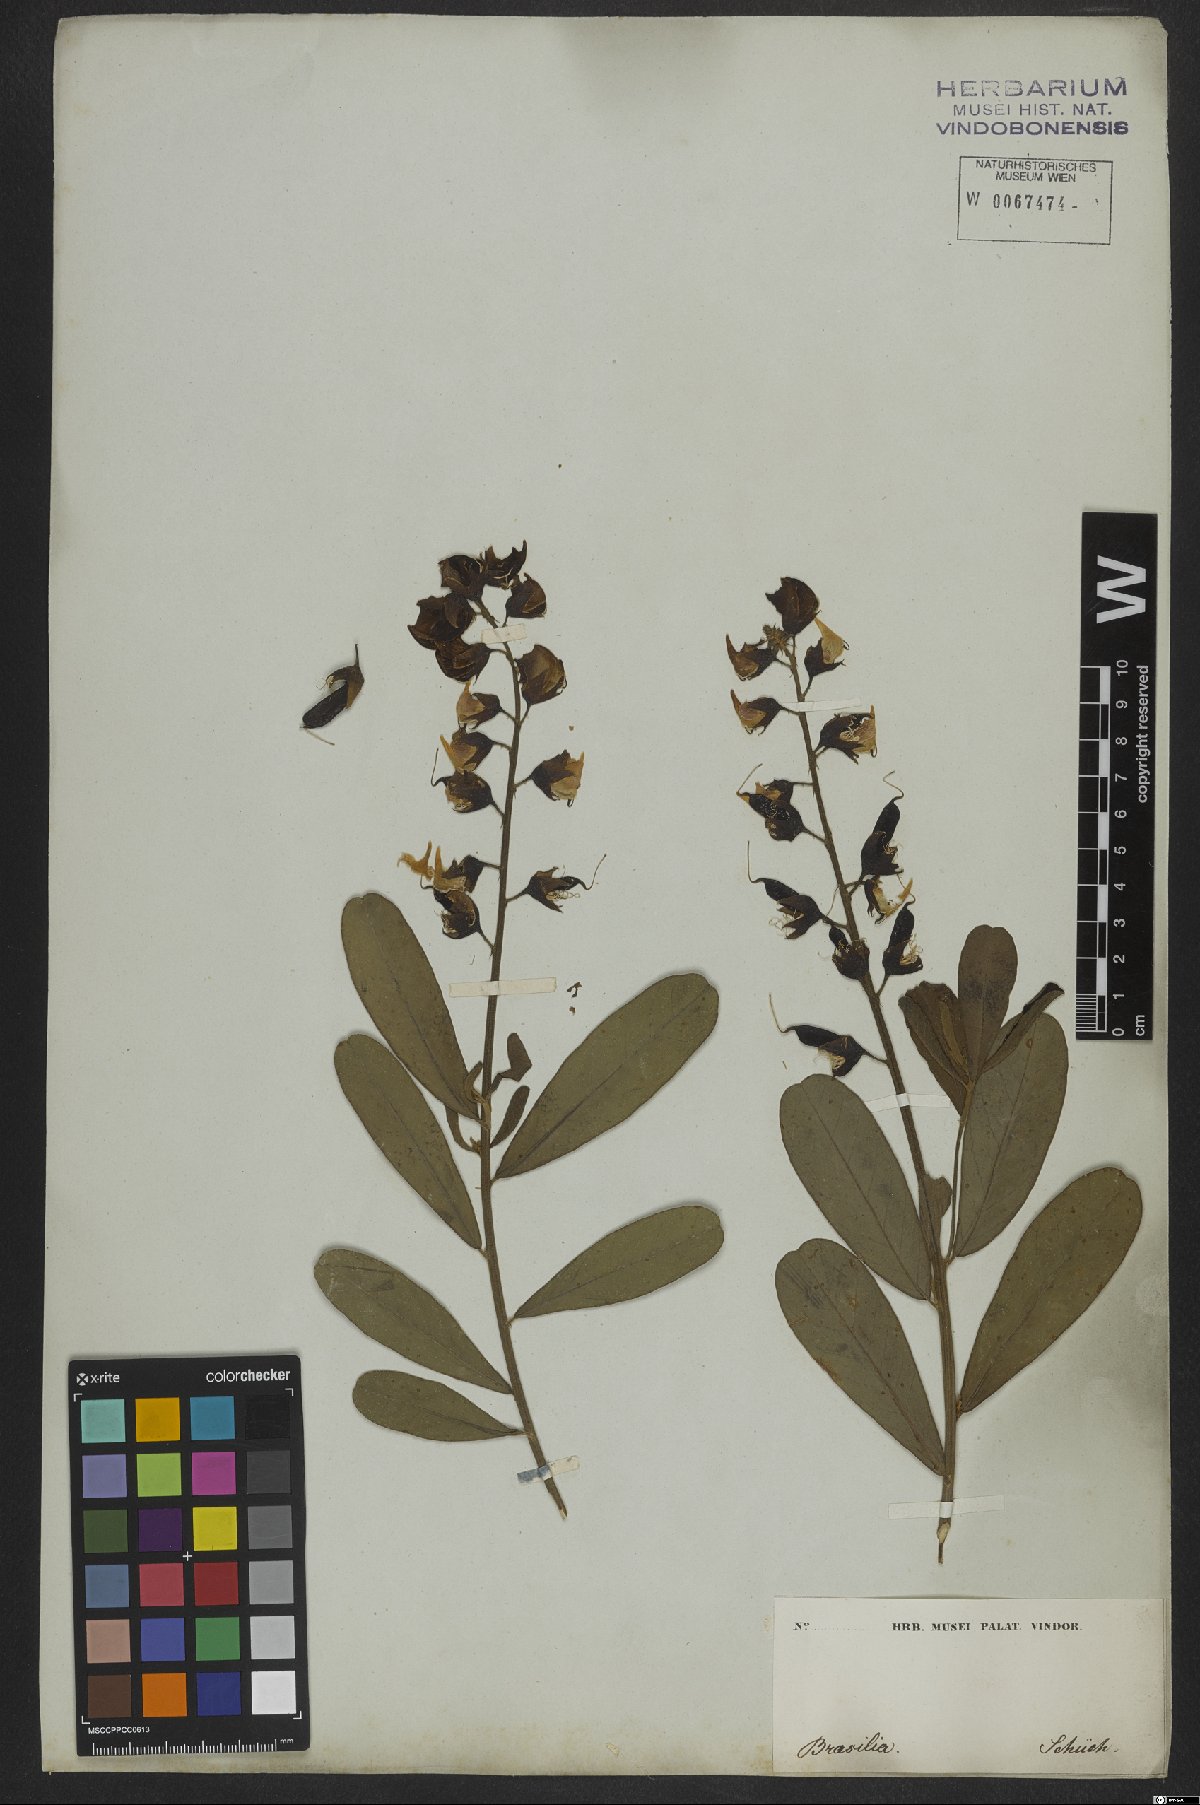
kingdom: Plantae
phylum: Tracheophyta
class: Magnoliopsida
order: Fabales
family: Fabaceae
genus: Crotalaria
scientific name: Crotalaria retusa
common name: Rattleweed
